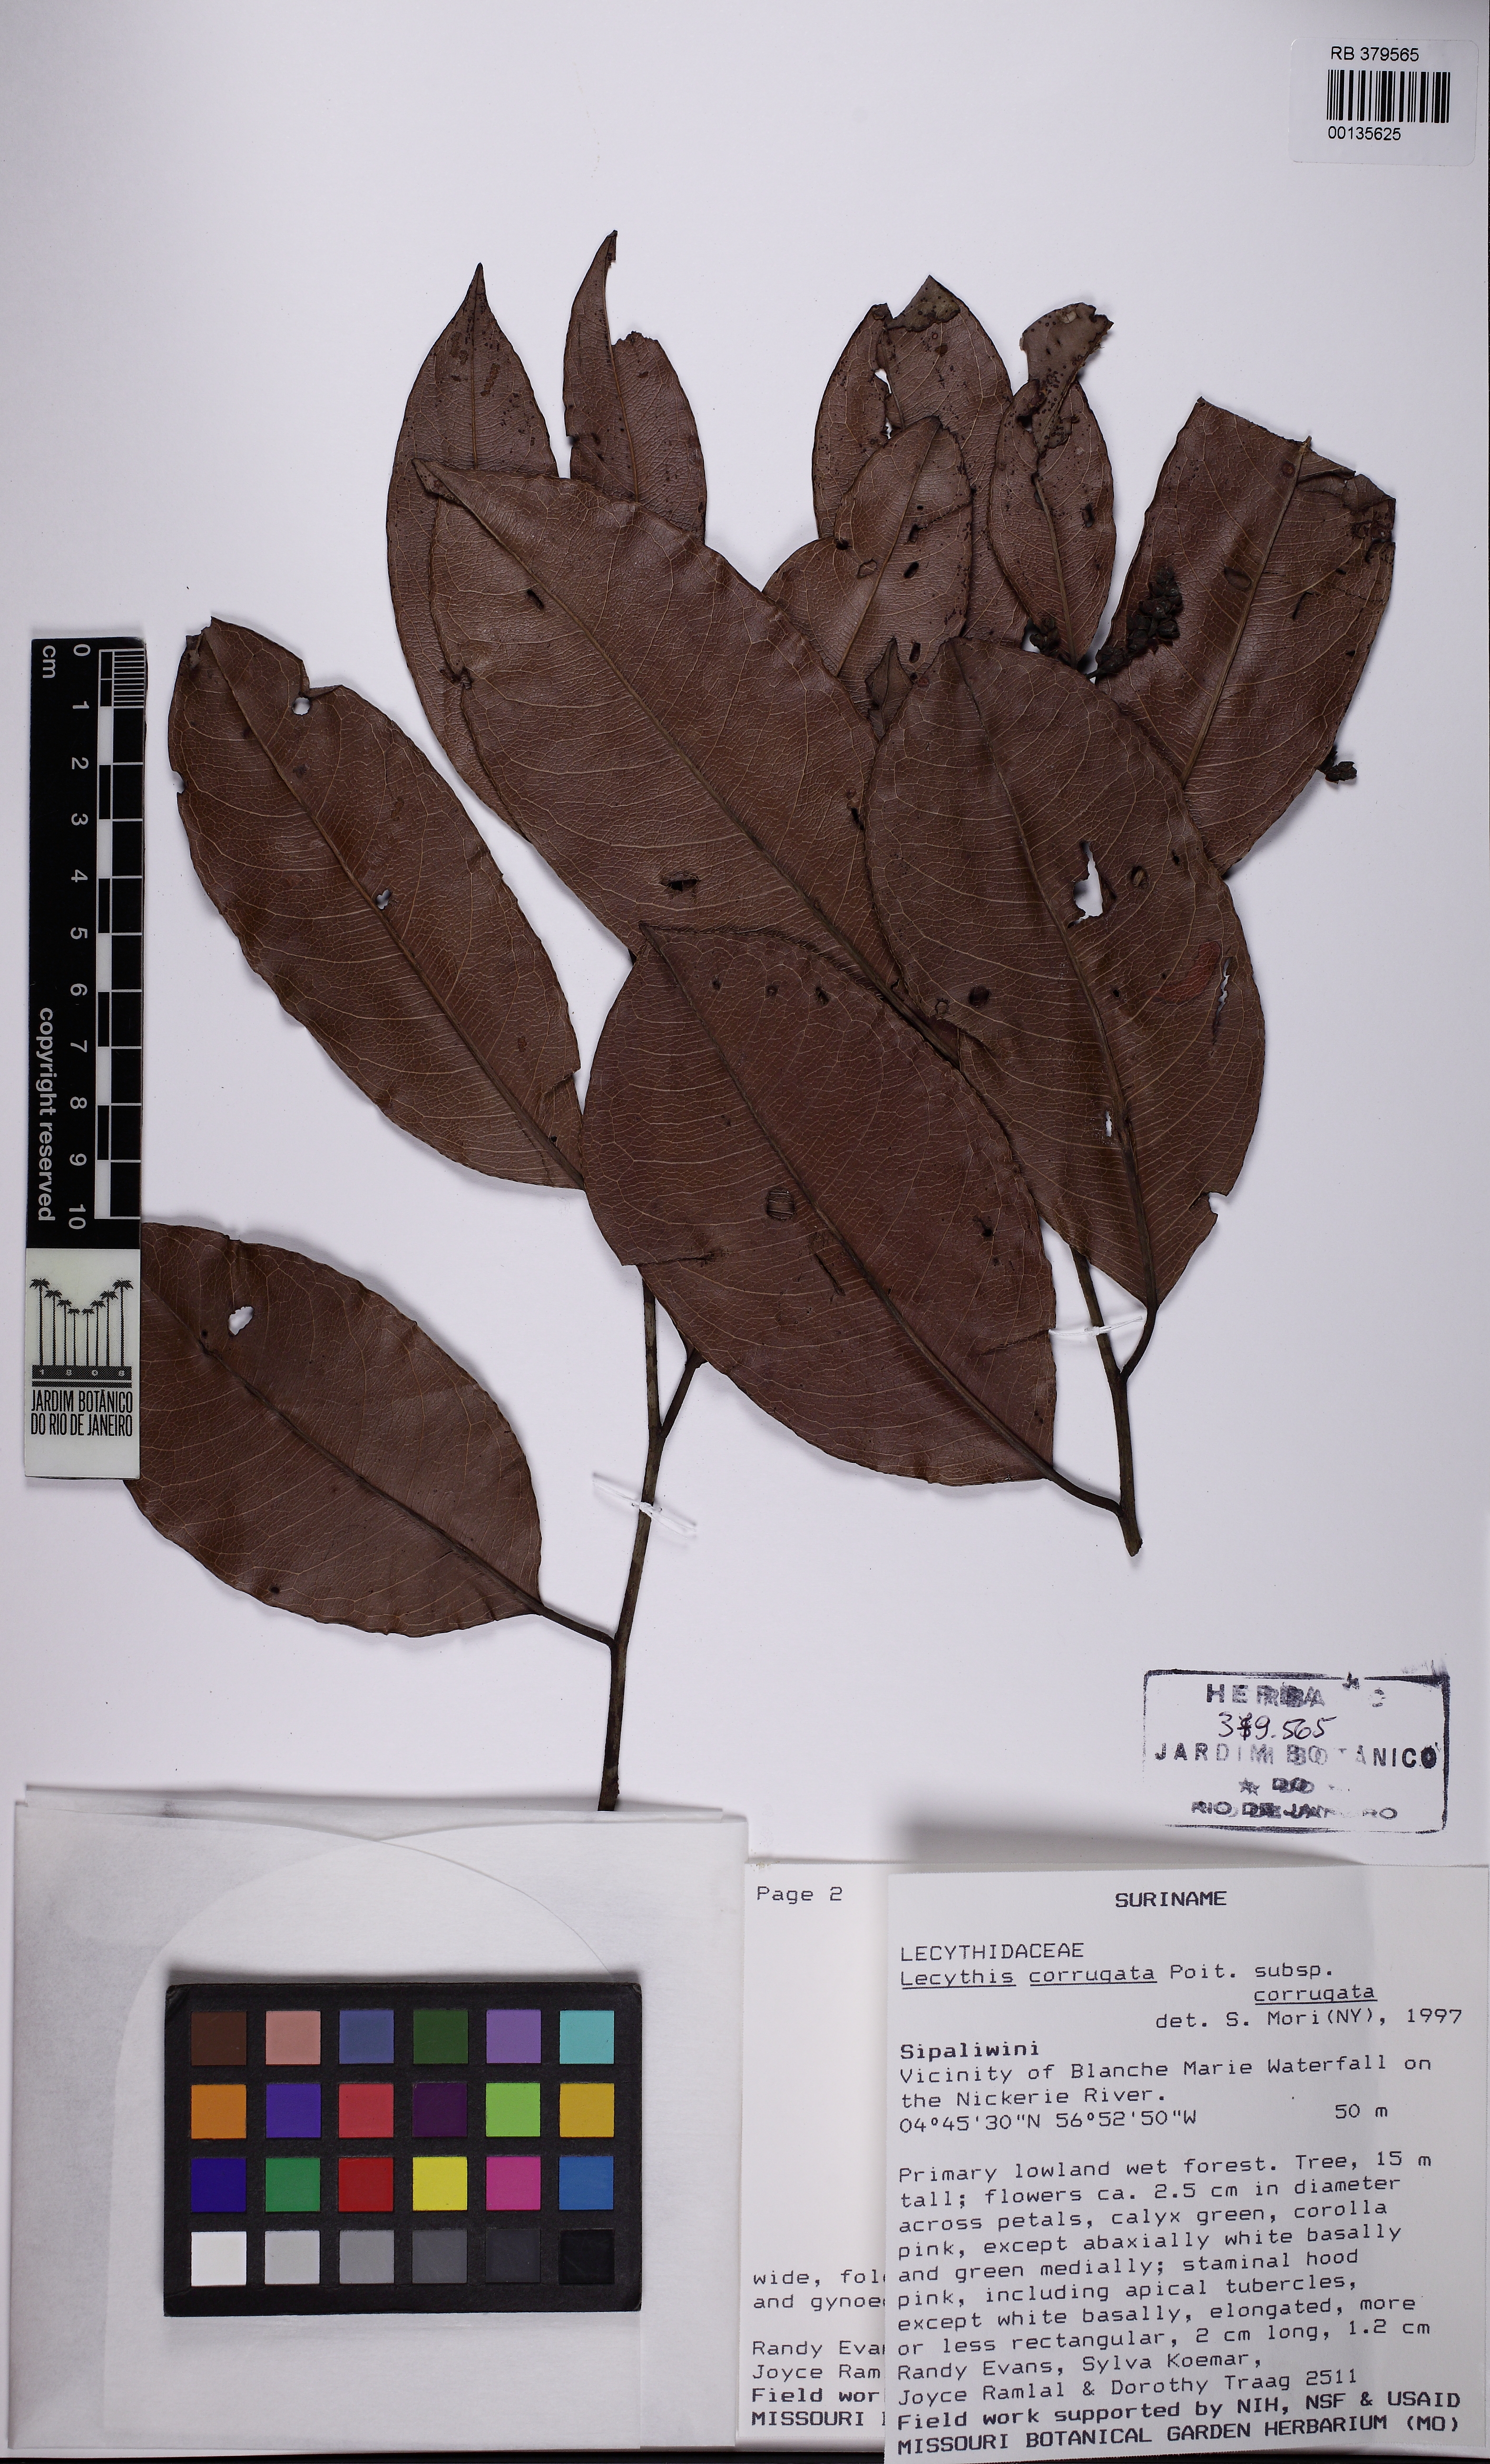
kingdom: Plantae
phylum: Tracheophyta
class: Magnoliopsida
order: Ericales
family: Lecythidaceae
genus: Lecythis
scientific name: Lecythis corrugata
